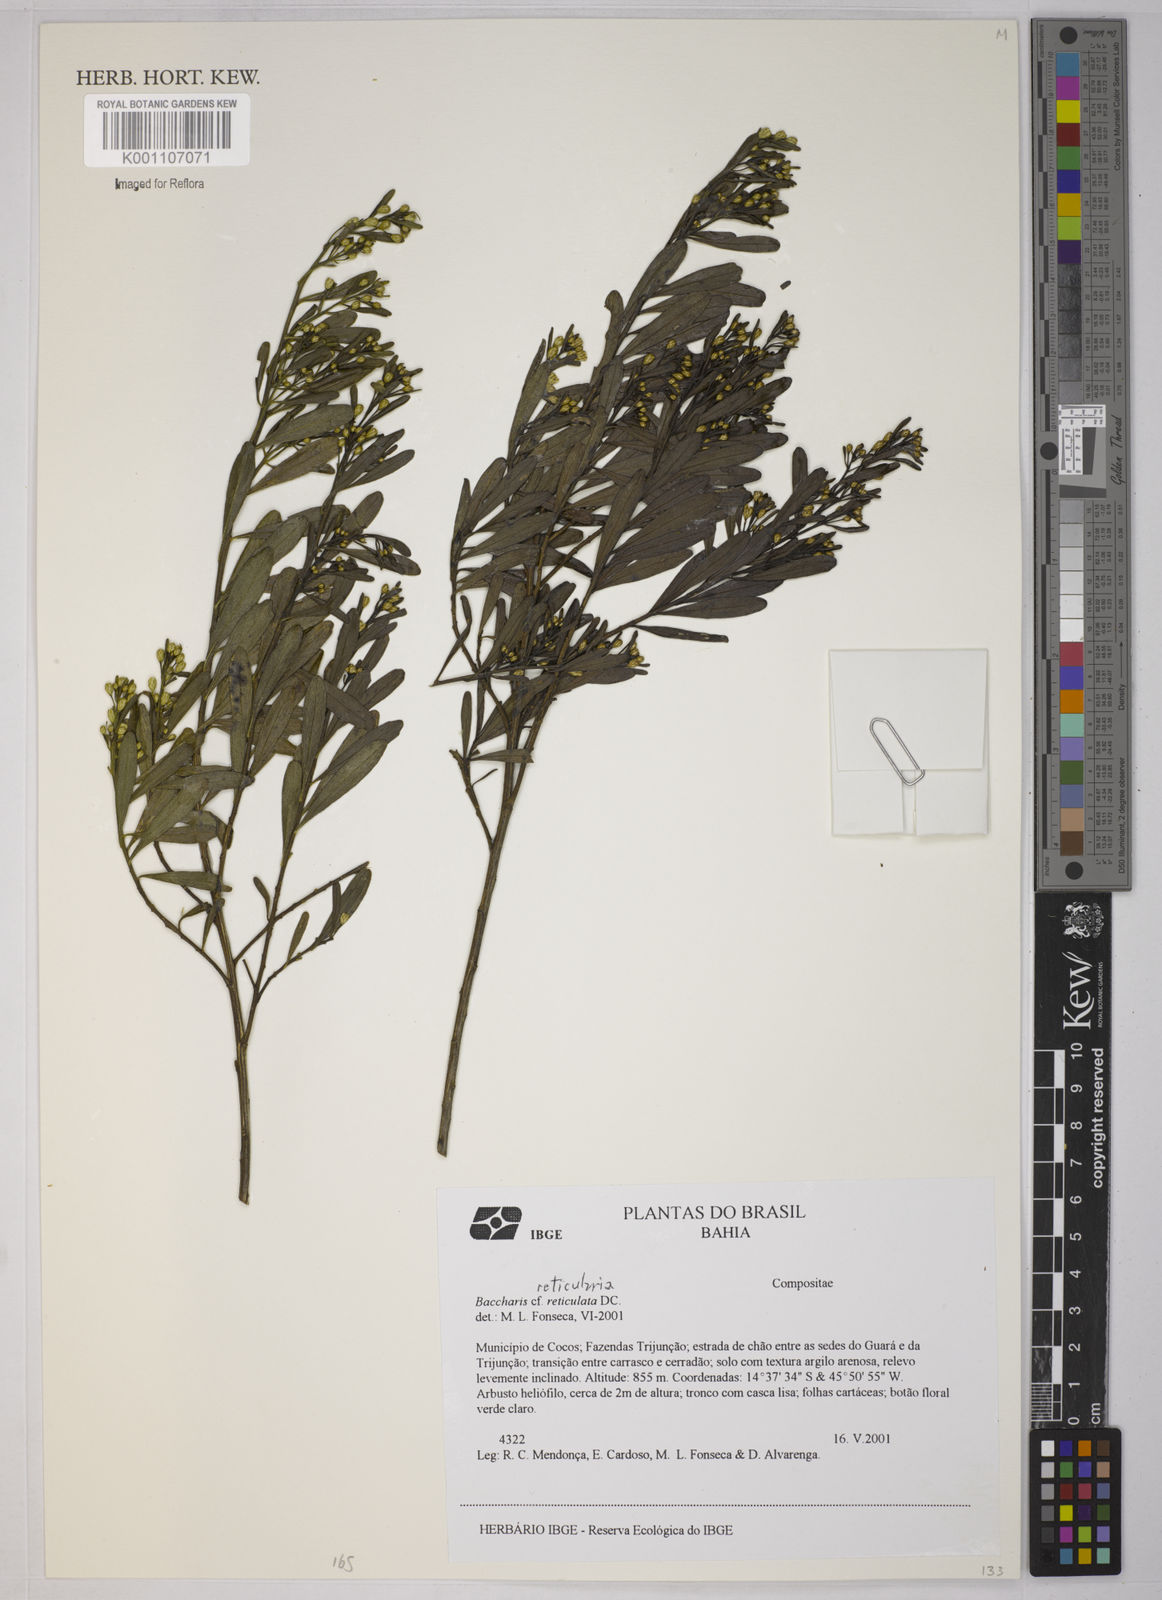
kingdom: Plantae
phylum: Tracheophyta
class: Magnoliopsida
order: Asterales
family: Asteraceae
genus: Baccharis
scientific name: Baccharis reticularia
